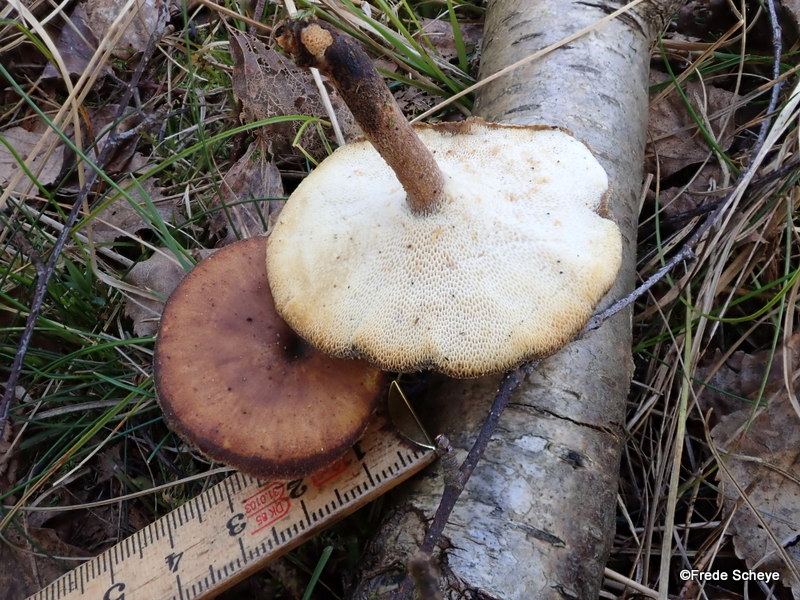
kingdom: Fungi
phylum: Basidiomycota
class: Agaricomycetes
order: Polyporales
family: Polyporaceae
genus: Lentinus
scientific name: Lentinus brumalis
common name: vinter-stilkporesvamp
